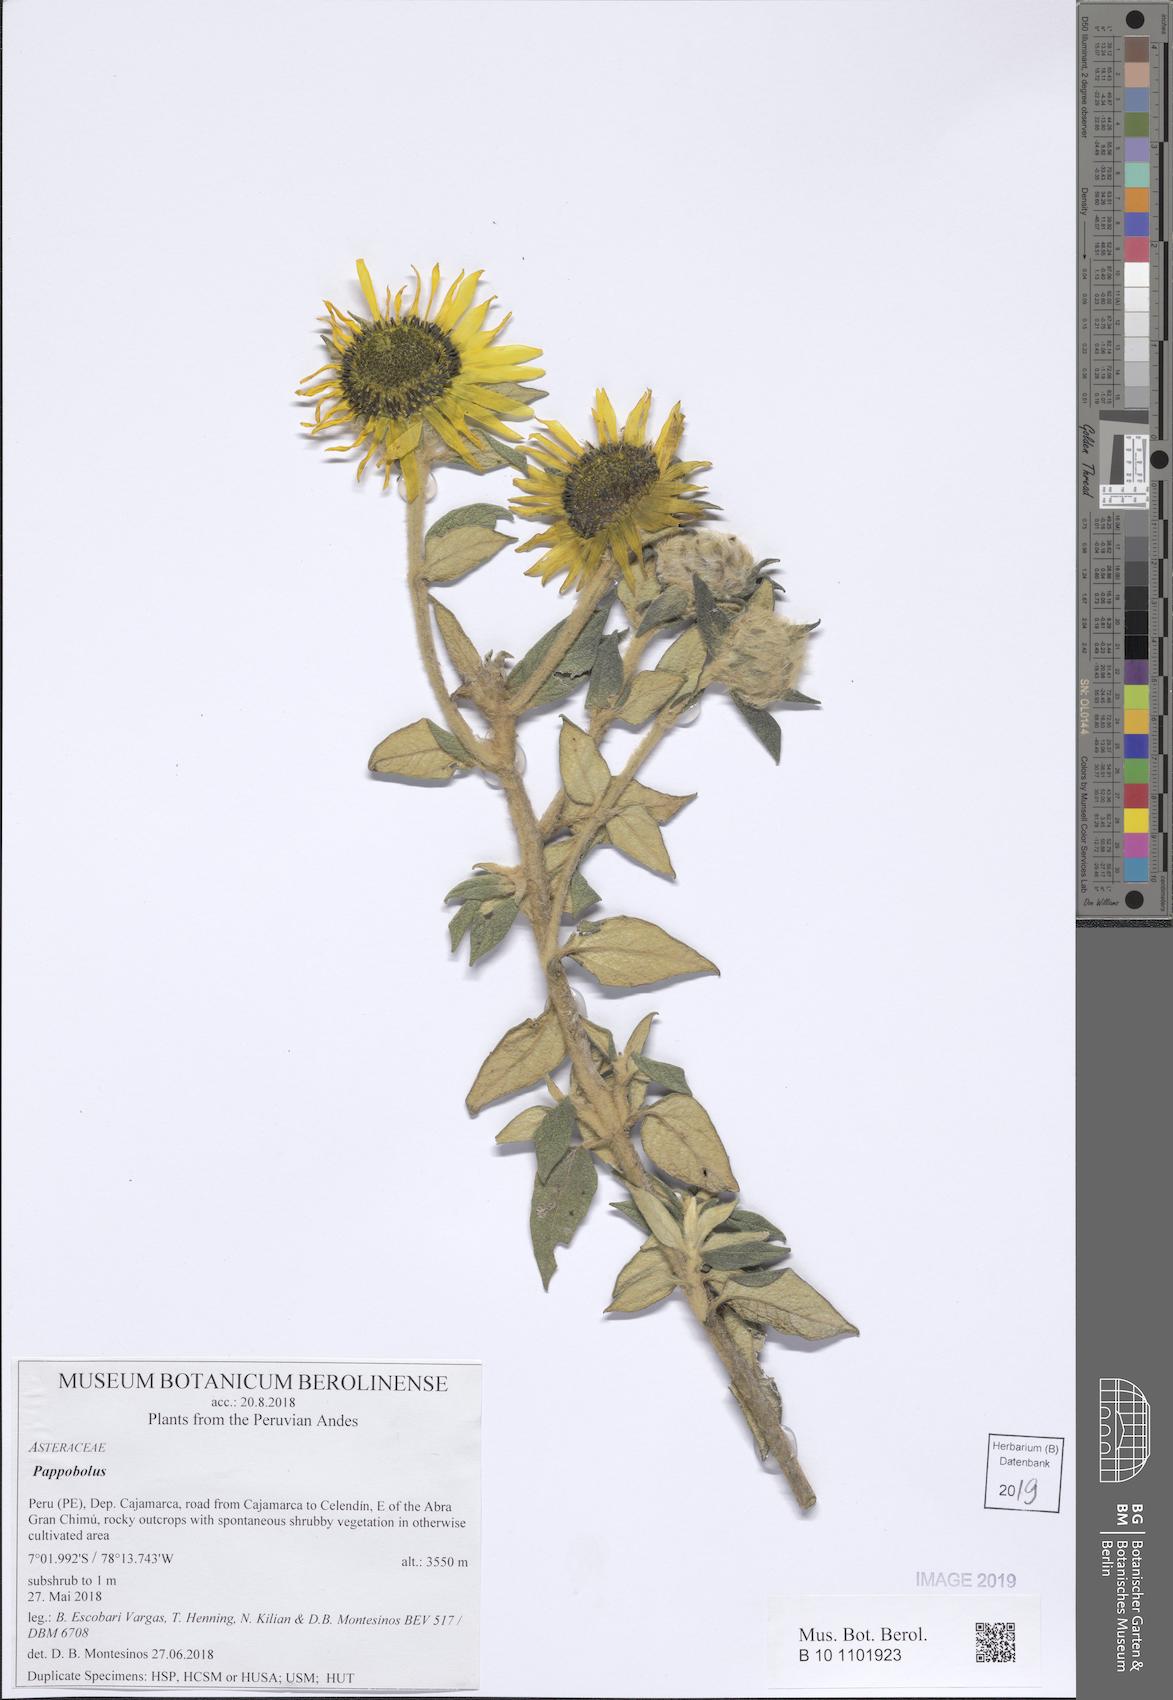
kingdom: Plantae
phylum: Tracheophyta
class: Magnoliopsida
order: Asterales
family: Asteraceae
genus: Pappobolus
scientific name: Pappobolus stuebelii
